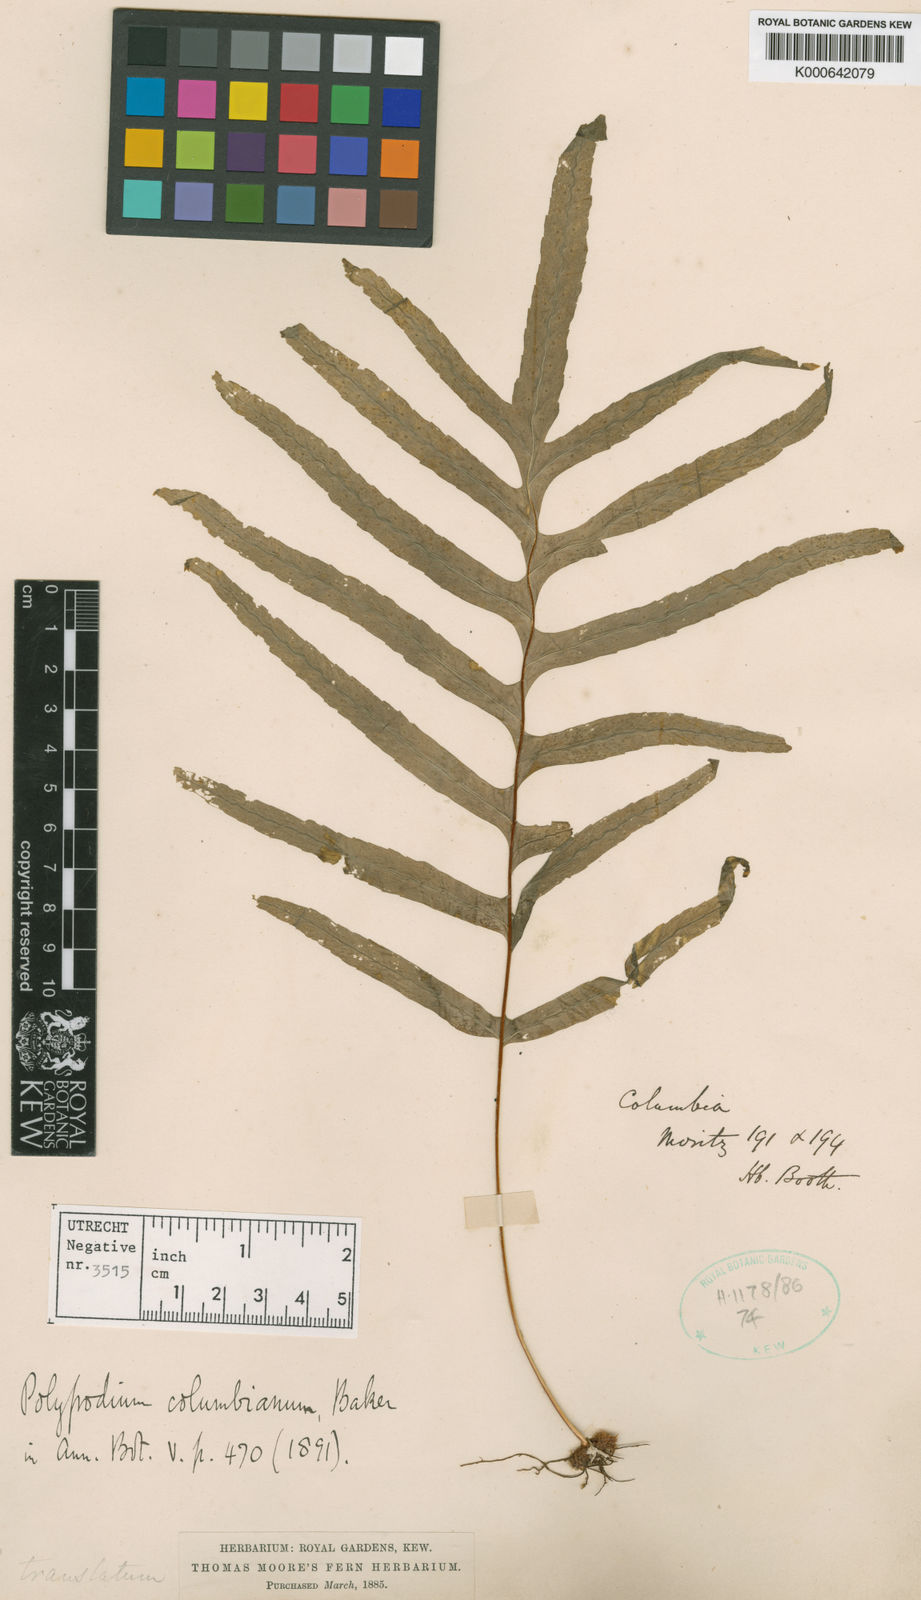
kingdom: Plantae
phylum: Tracheophyta
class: Polypodiopsida
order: Polypodiales
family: Polypodiaceae
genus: Polypodium
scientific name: Polypodium columbianum
